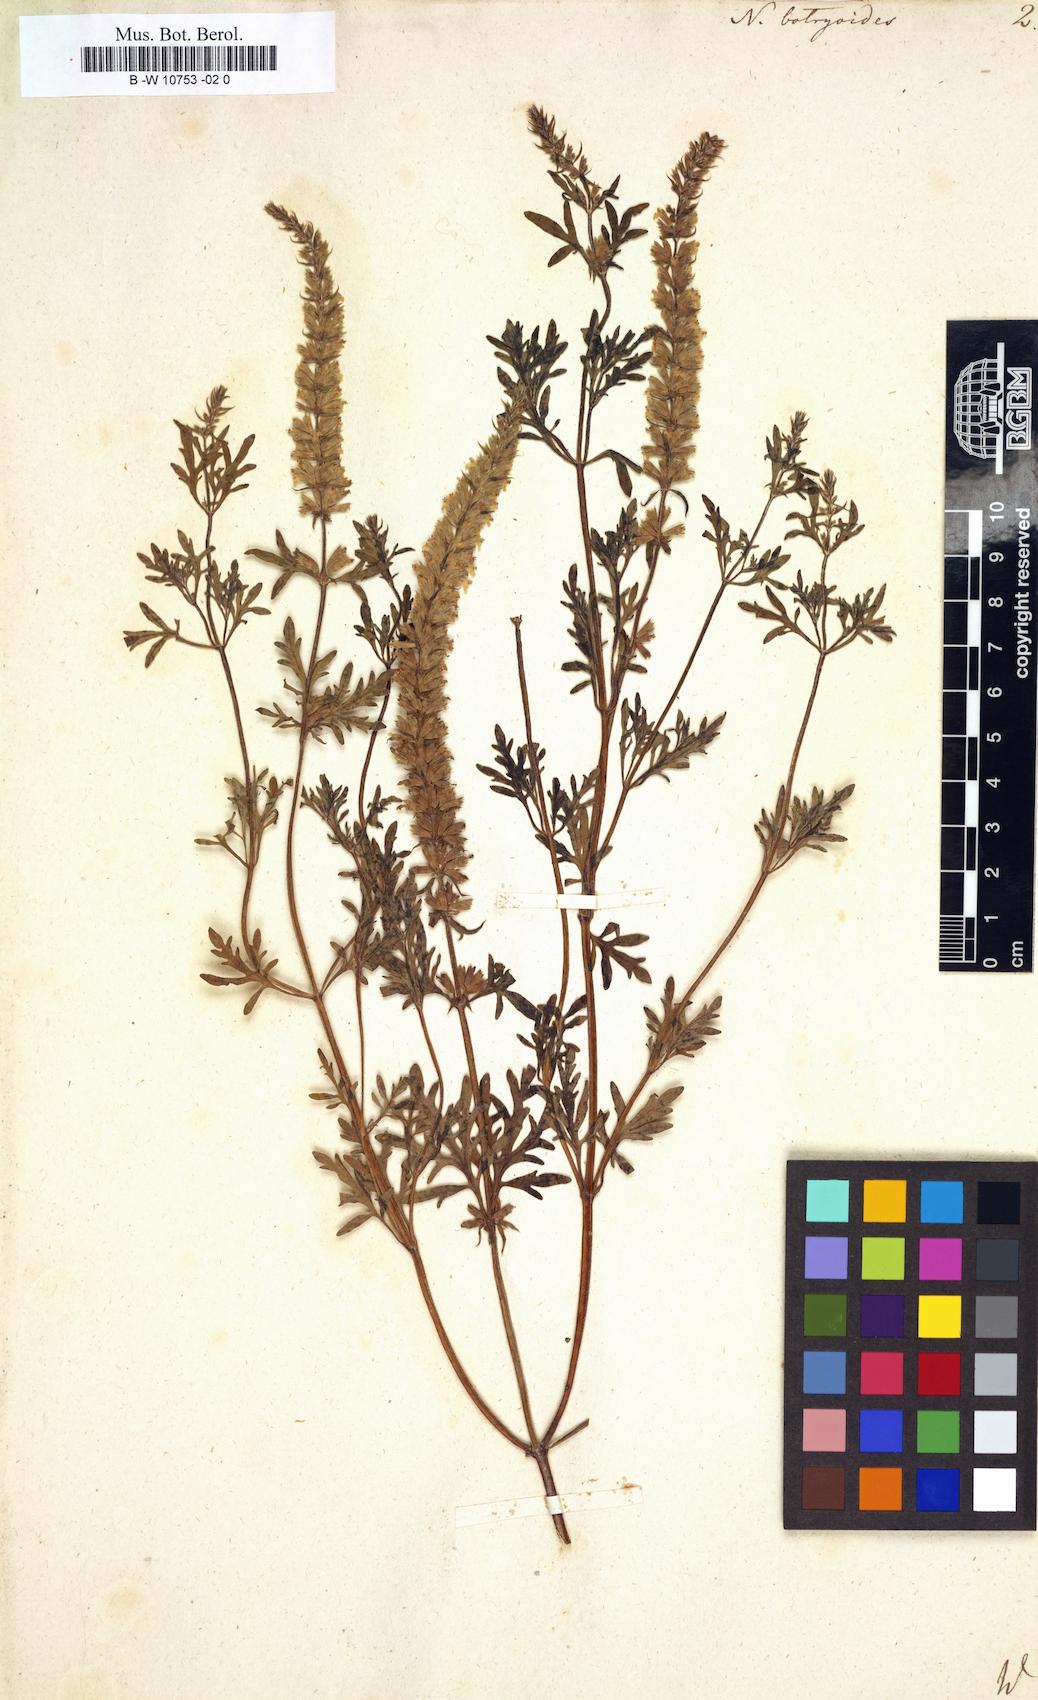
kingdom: Plantae
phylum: Tracheophyta
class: Magnoliopsida
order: Lamiales
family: Lamiaceae
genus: Nepeta
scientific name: Nepeta annua
